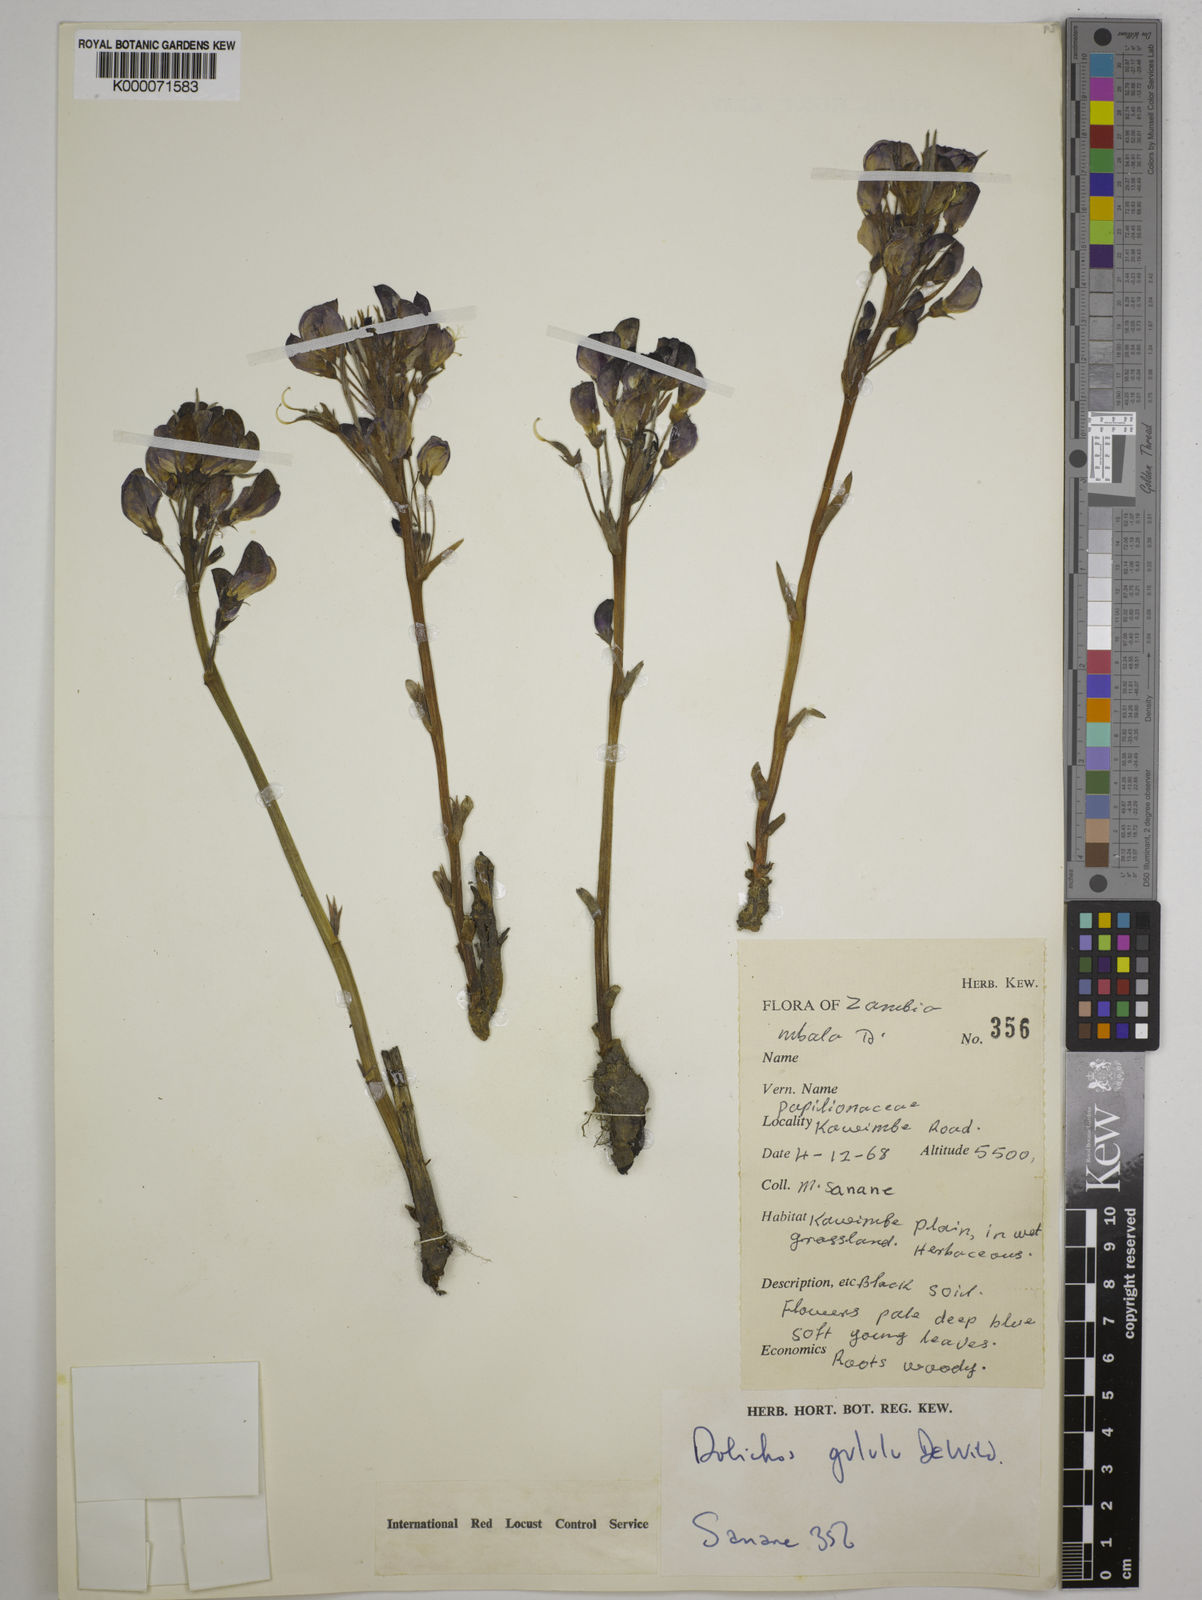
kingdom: Plantae
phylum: Tracheophyta
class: Magnoliopsida
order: Fabales
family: Fabaceae
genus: Dolichos
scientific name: Dolichos gululu
